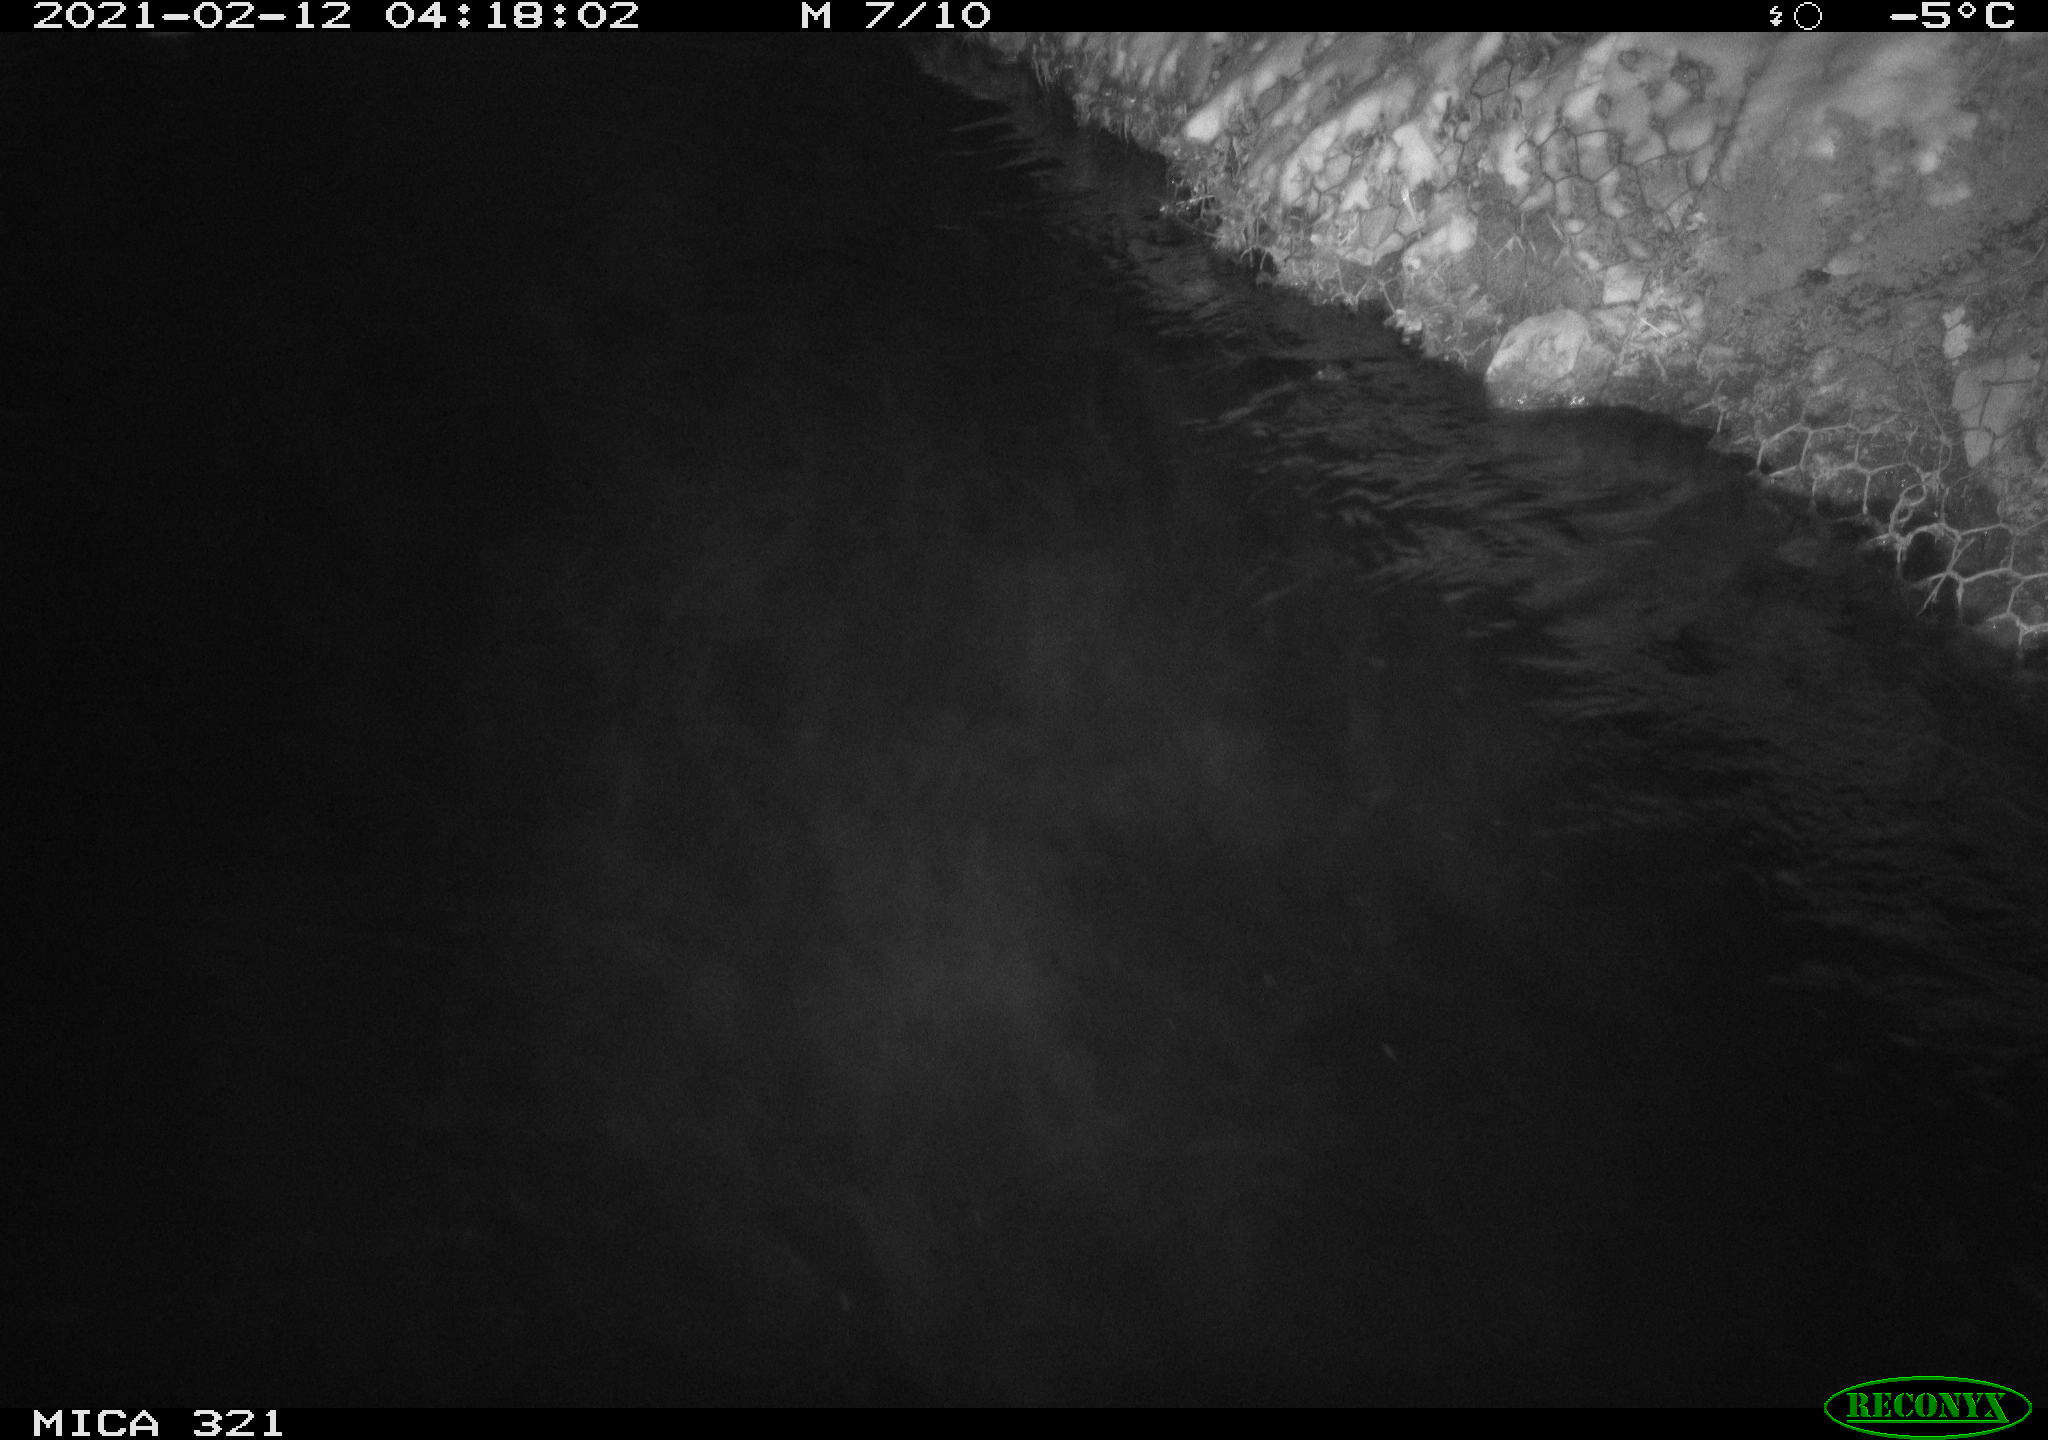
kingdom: Animalia
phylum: Chordata
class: Aves
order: Anseriformes
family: Anatidae
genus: Anas
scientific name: Anas platyrhynchos
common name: Mallard
